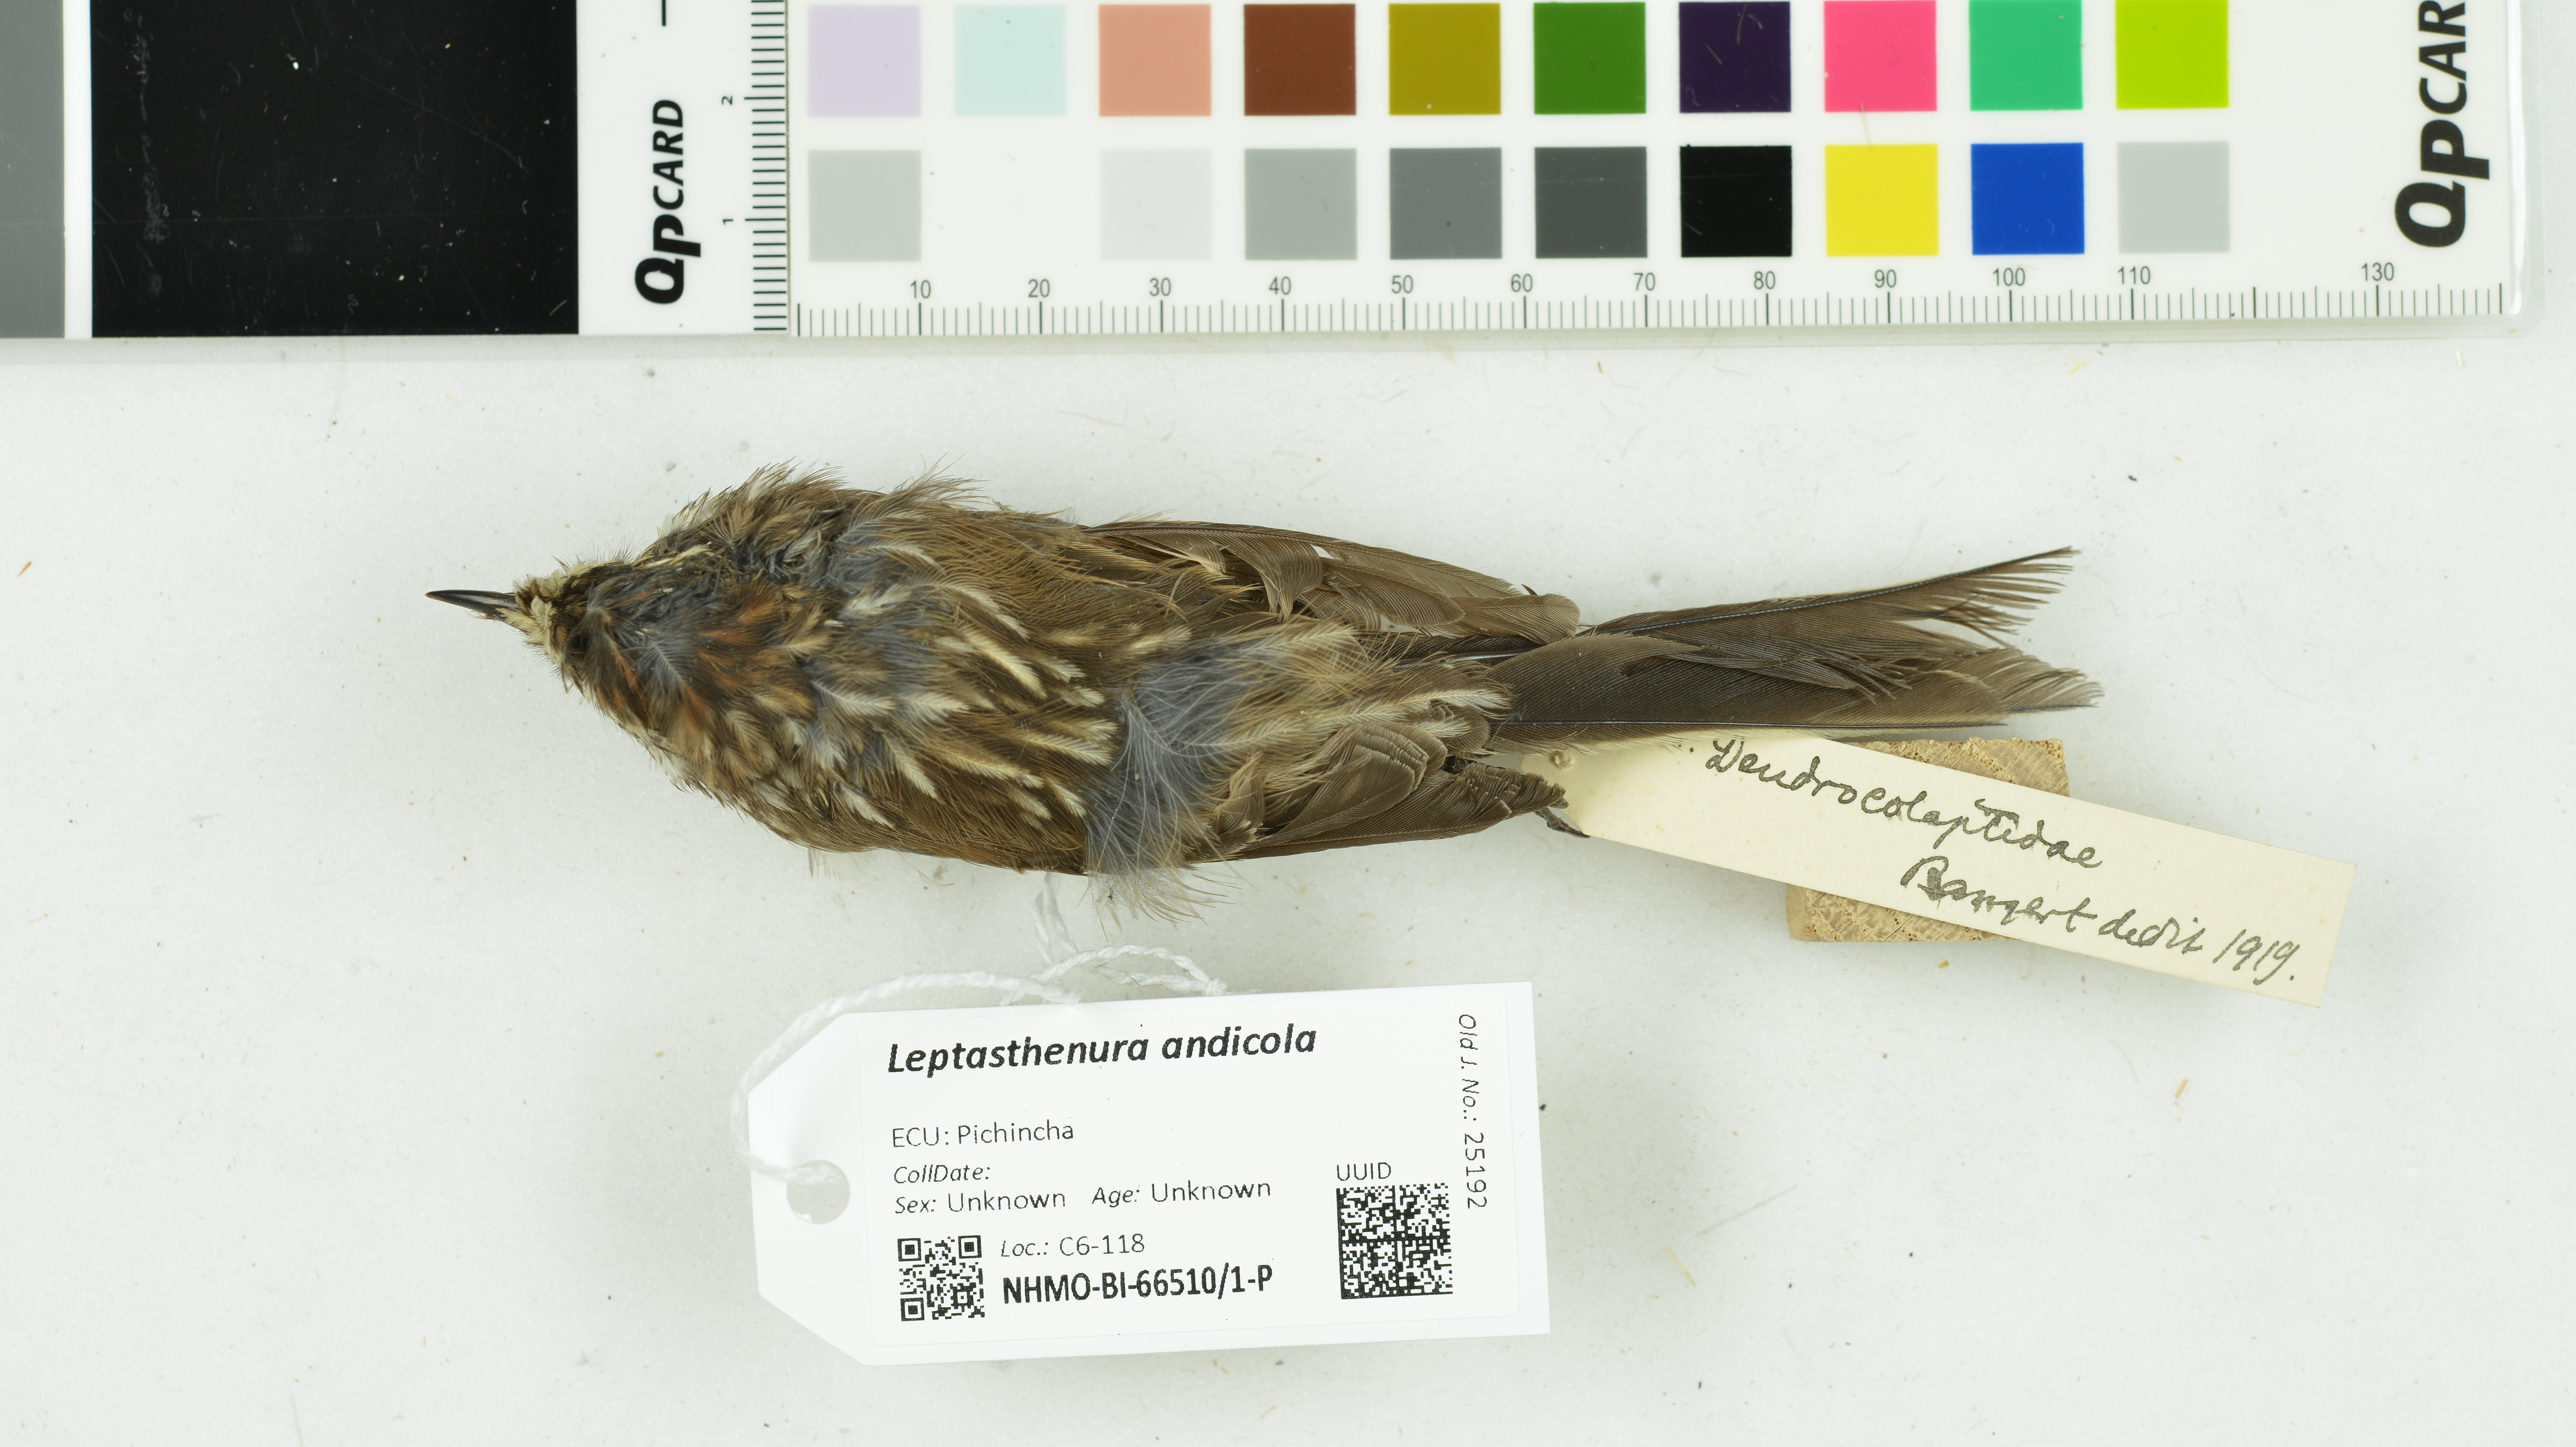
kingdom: Animalia
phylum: Chordata
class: Aves
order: Passeriformes
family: Furnariidae
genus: Leptasthenura
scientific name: Leptasthenura andicola
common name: Andean tit-spinetail
